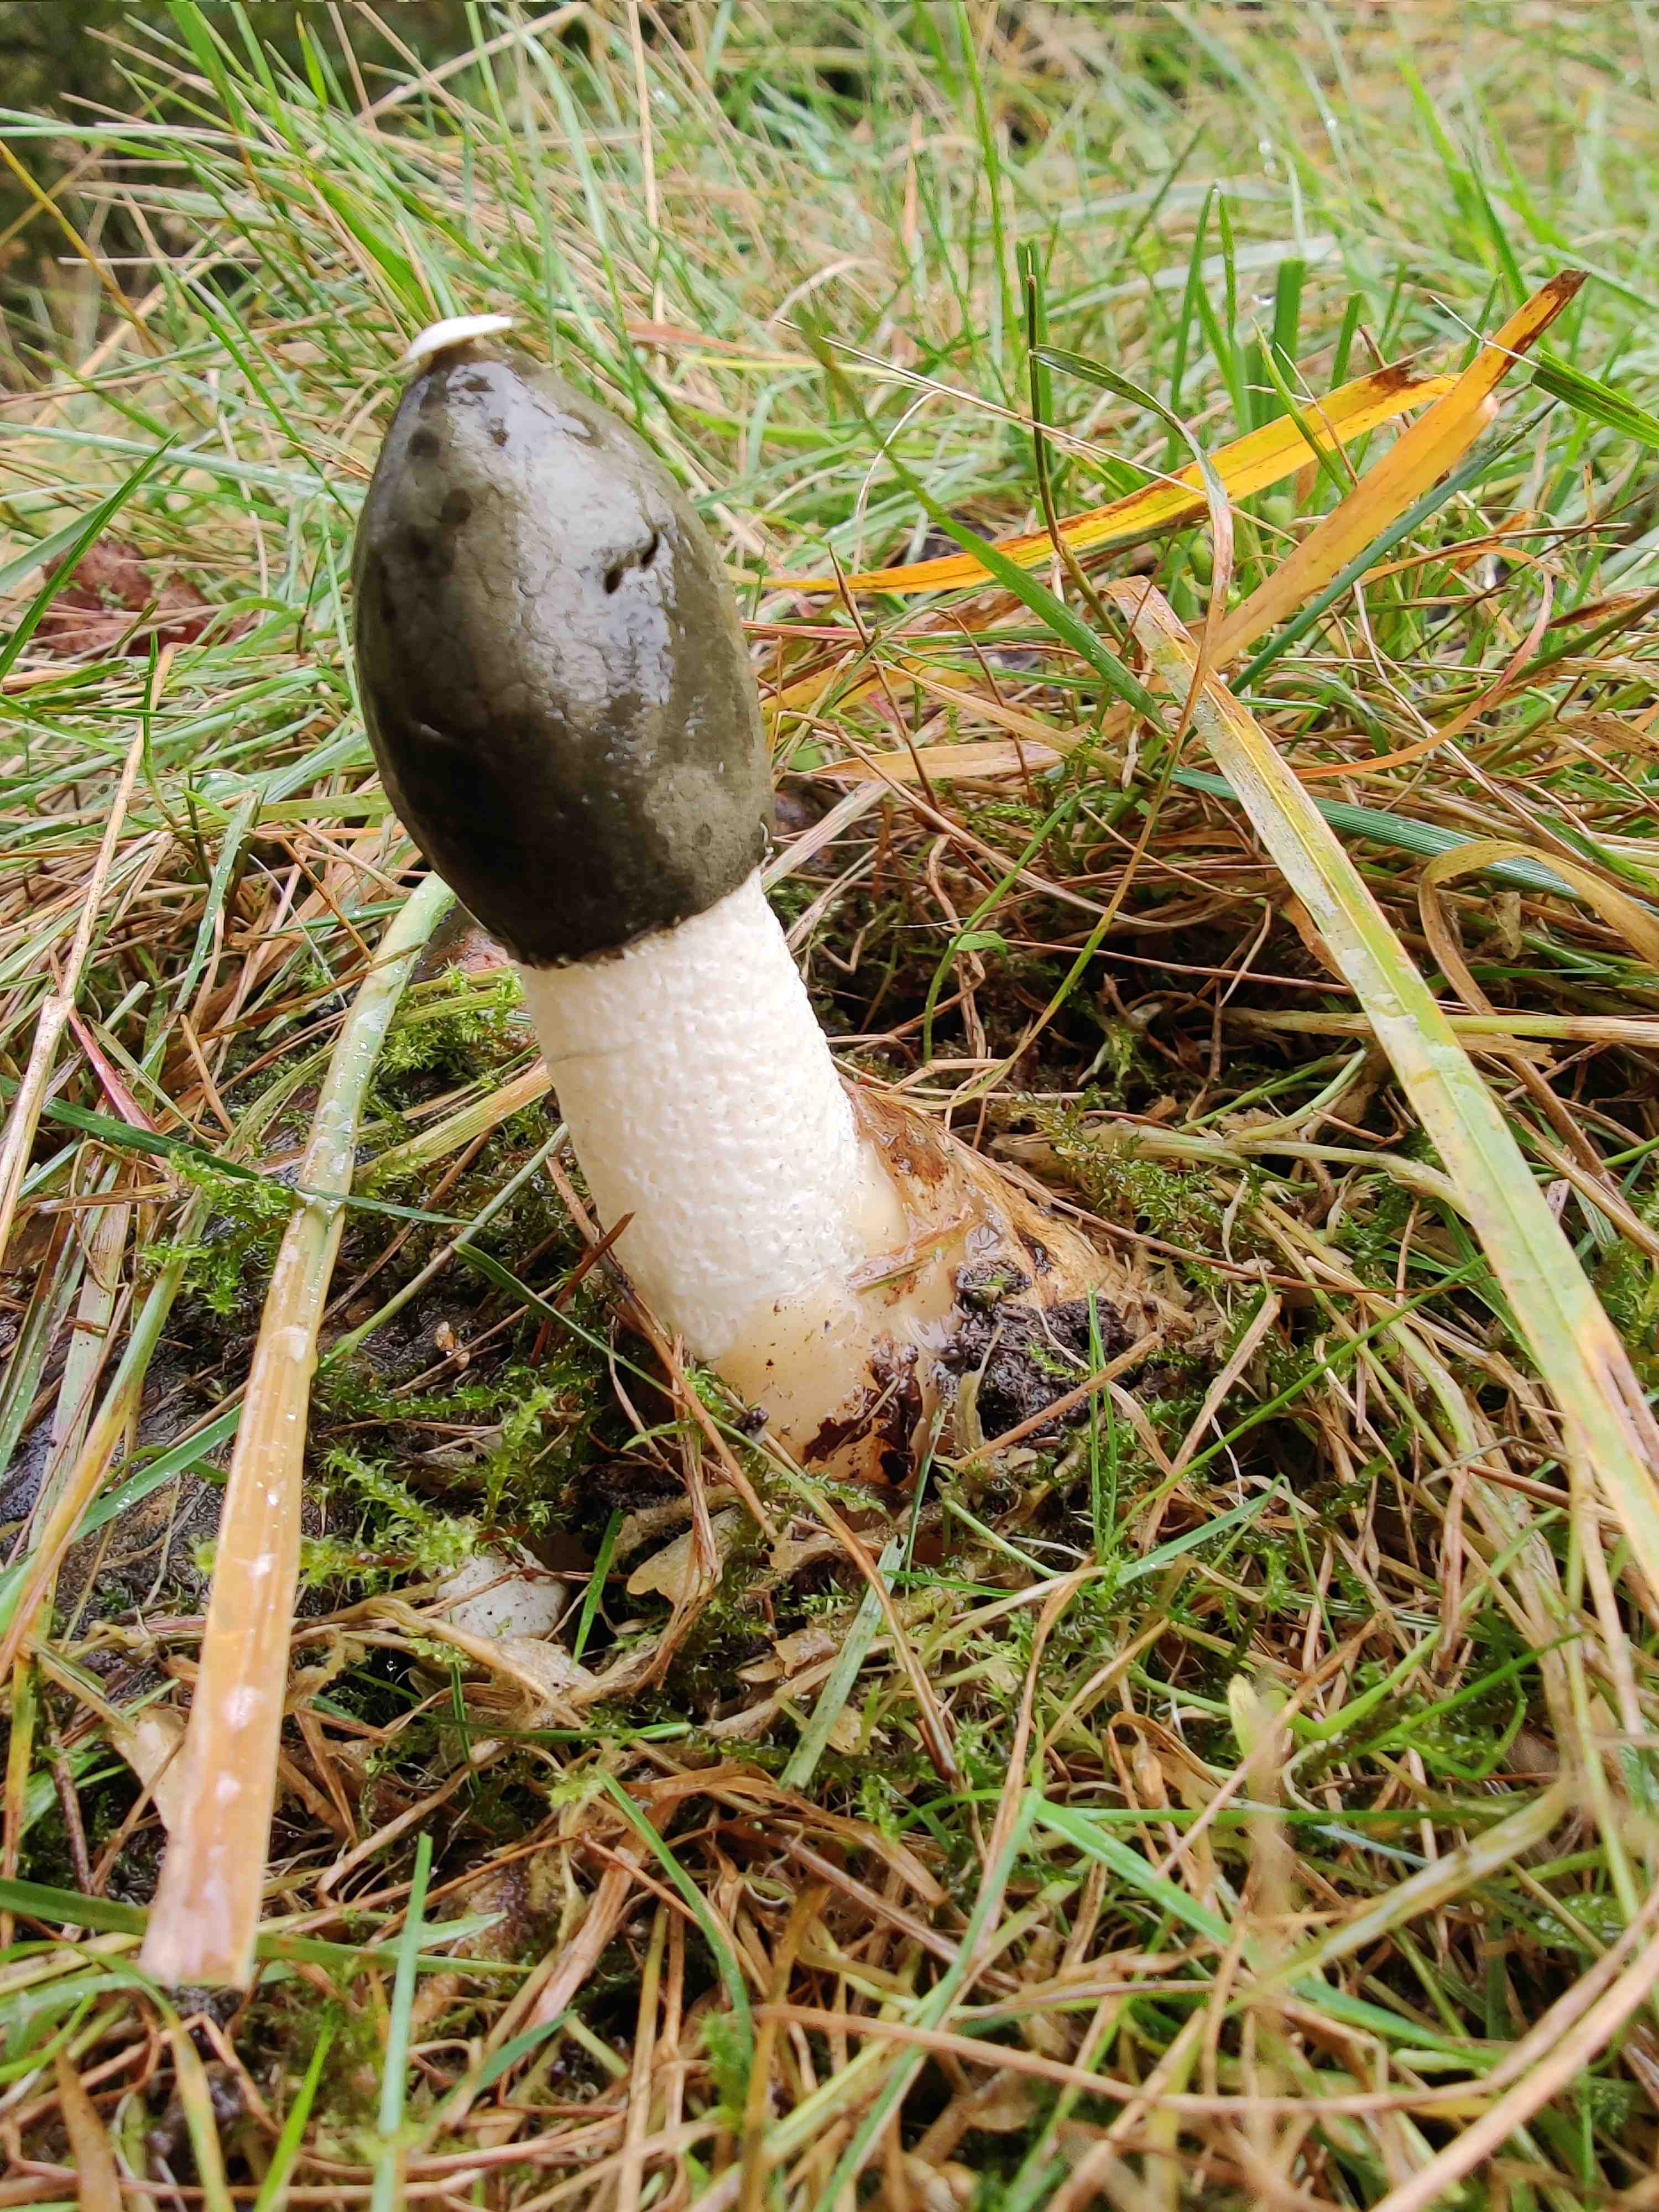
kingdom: Fungi
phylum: Basidiomycota
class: Agaricomycetes
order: Phallales
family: Phallaceae
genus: Phallus
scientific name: Phallus impudicus
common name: almindelig stinksvamp
